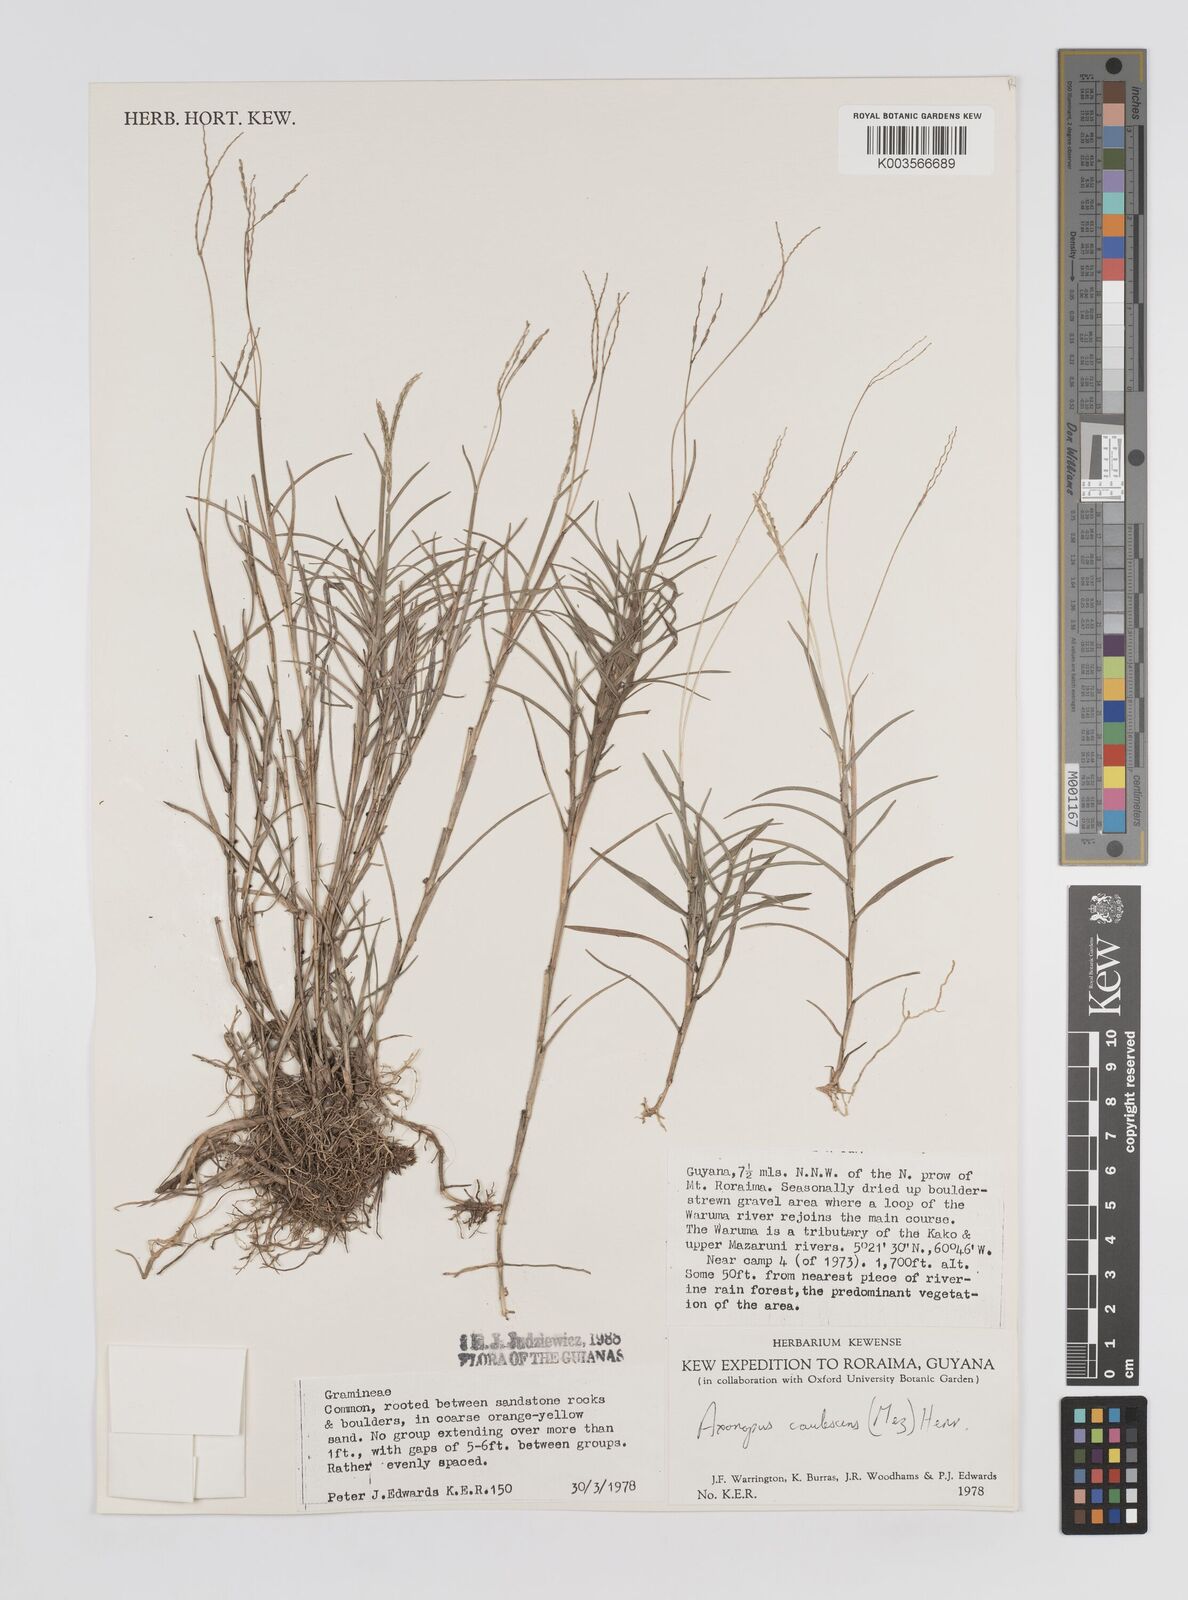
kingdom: Plantae
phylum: Tracheophyta
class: Liliopsida
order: Poales
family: Poaceae
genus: Axonopus
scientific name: Axonopus caulescens
